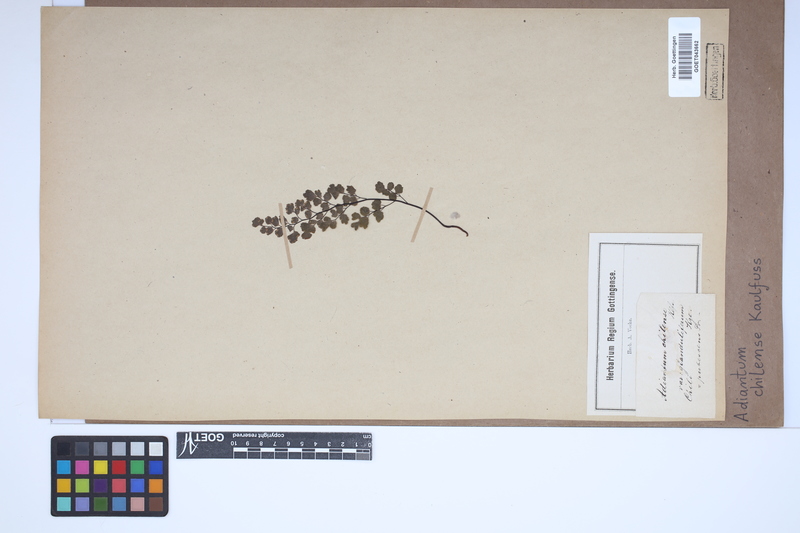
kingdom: Plantae
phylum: Tracheophyta
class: Polypodiopsida
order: Polypodiales
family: Pteridaceae
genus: Adiantum
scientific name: Adiantum chilense
